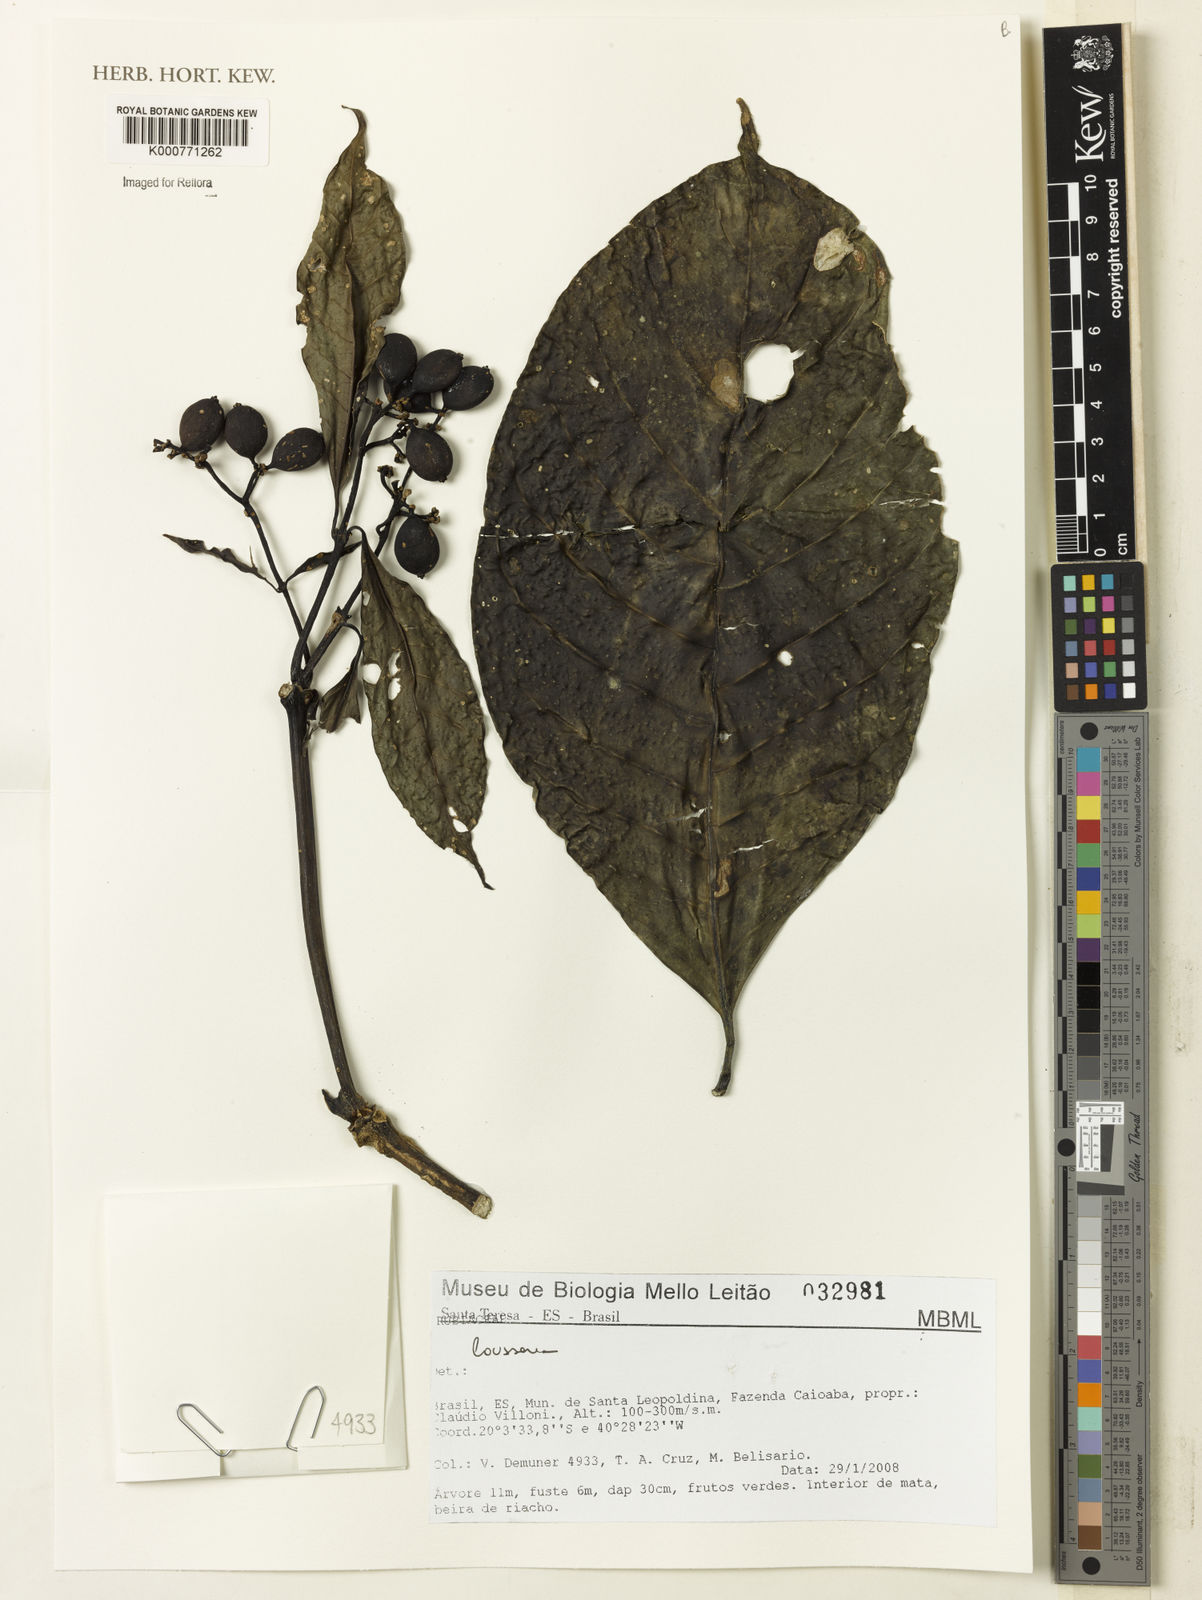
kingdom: Plantae
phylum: Tracheophyta
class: Magnoliopsida
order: Gentianales
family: Rubiaceae
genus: Coussarea
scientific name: Coussarea
